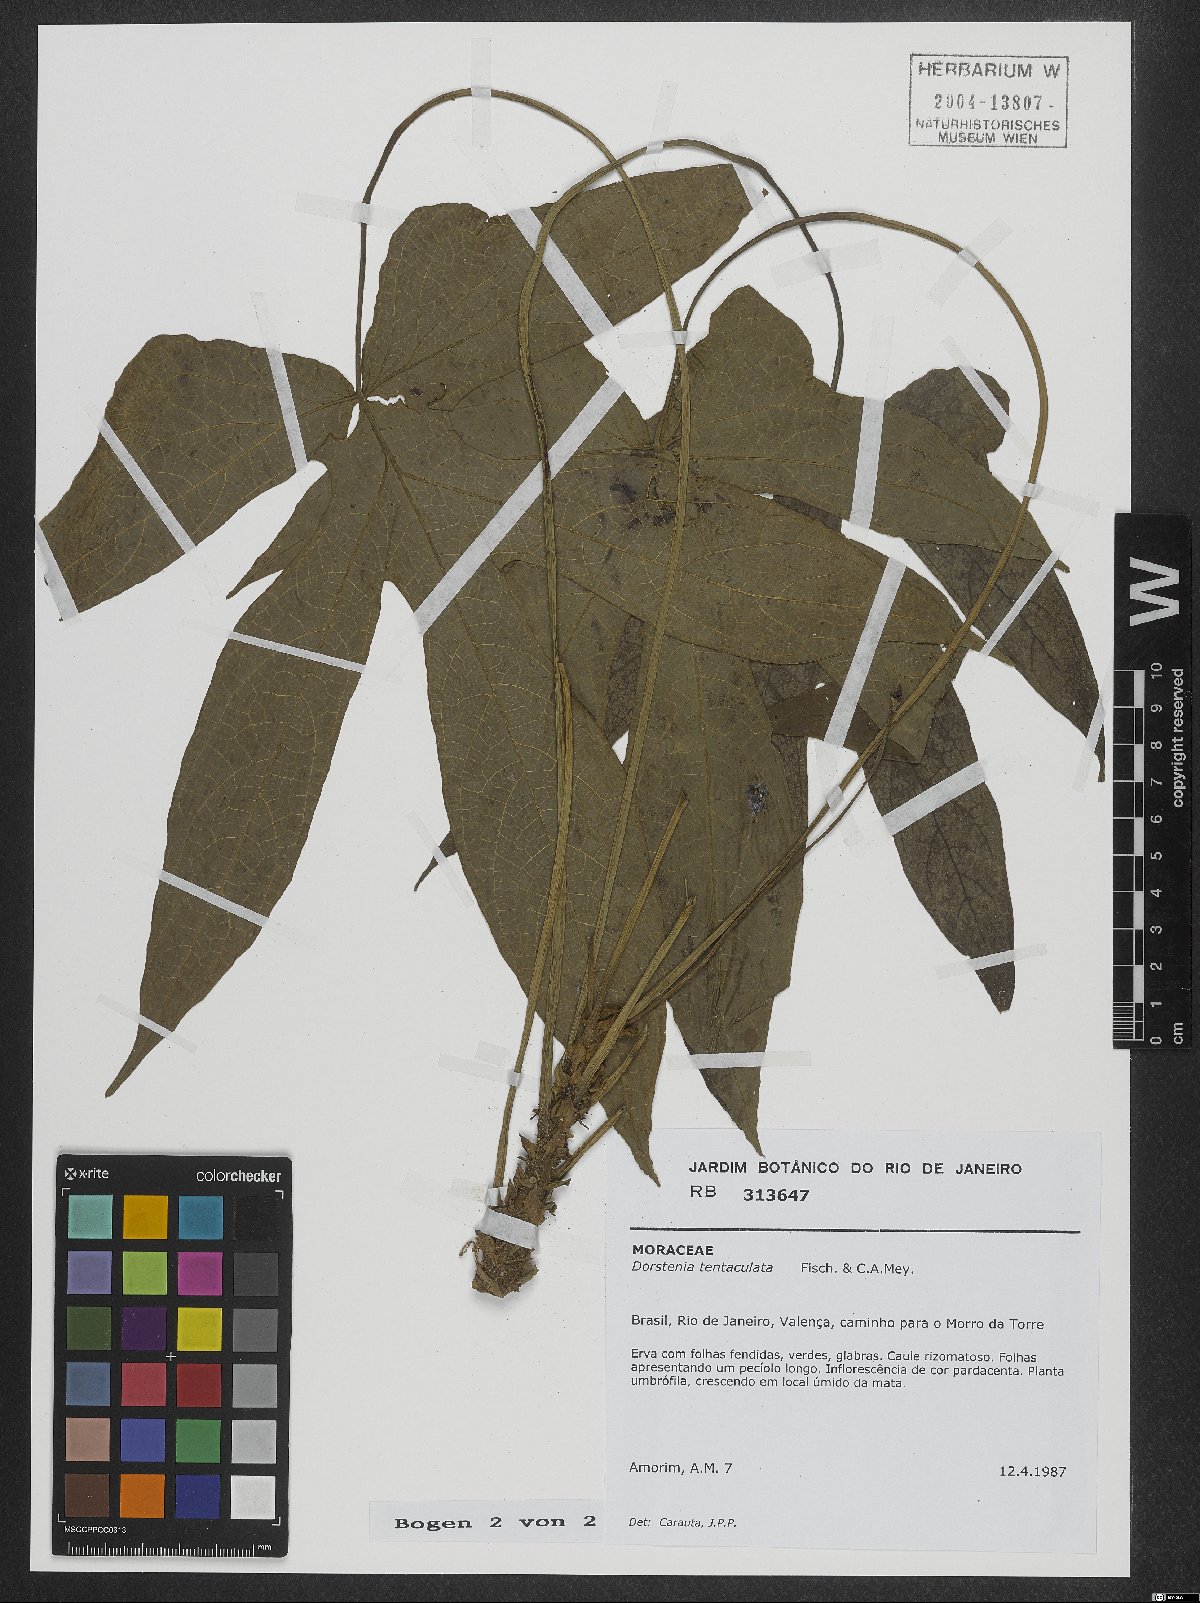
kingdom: Plantae
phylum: Tracheophyta
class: Magnoliopsida
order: Rosales
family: Moraceae
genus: Dorstenia
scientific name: Dorstenia tentaculata
